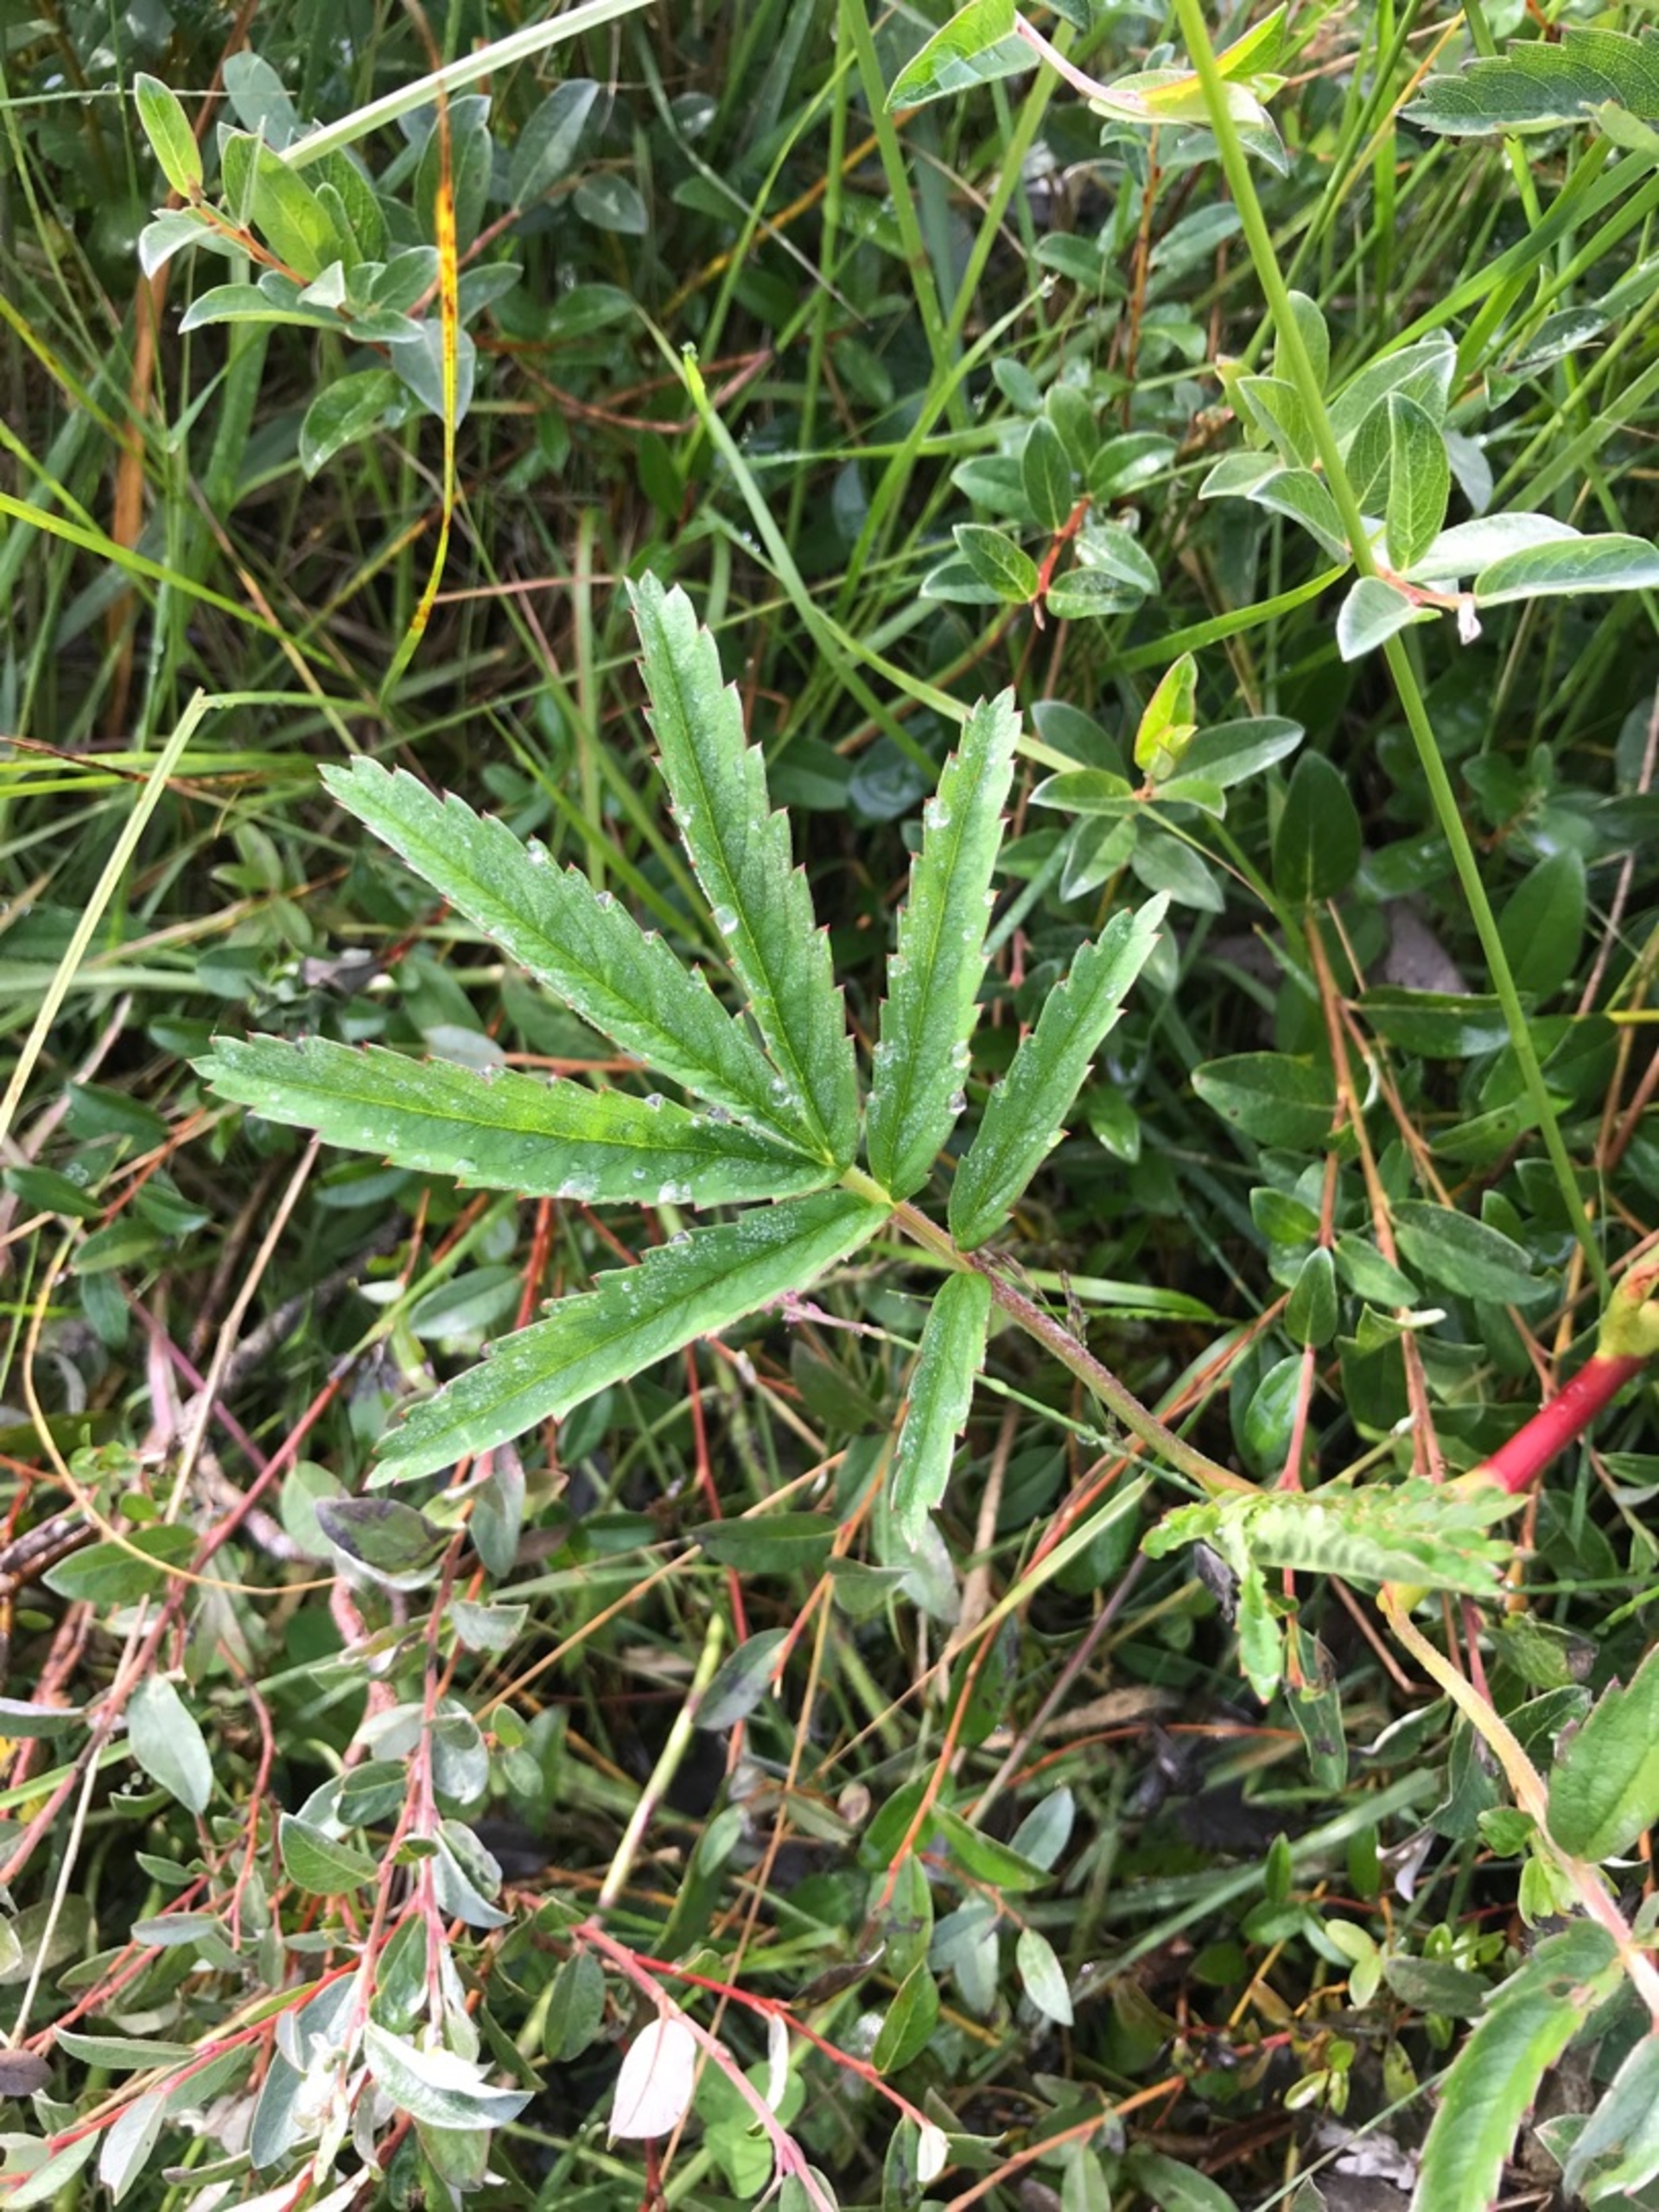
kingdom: Plantae
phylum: Tracheophyta
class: Magnoliopsida
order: Rosales
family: Rosaceae
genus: Comarum
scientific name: Comarum palustre
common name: Kragefod
